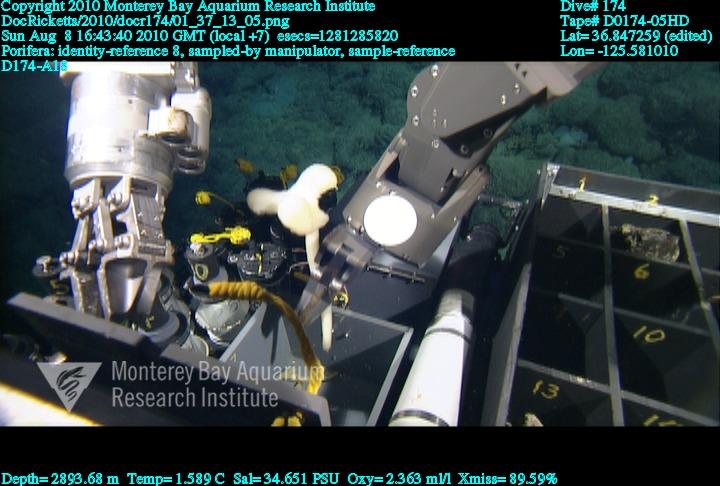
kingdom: Animalia
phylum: Porifera
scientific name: Porifera
